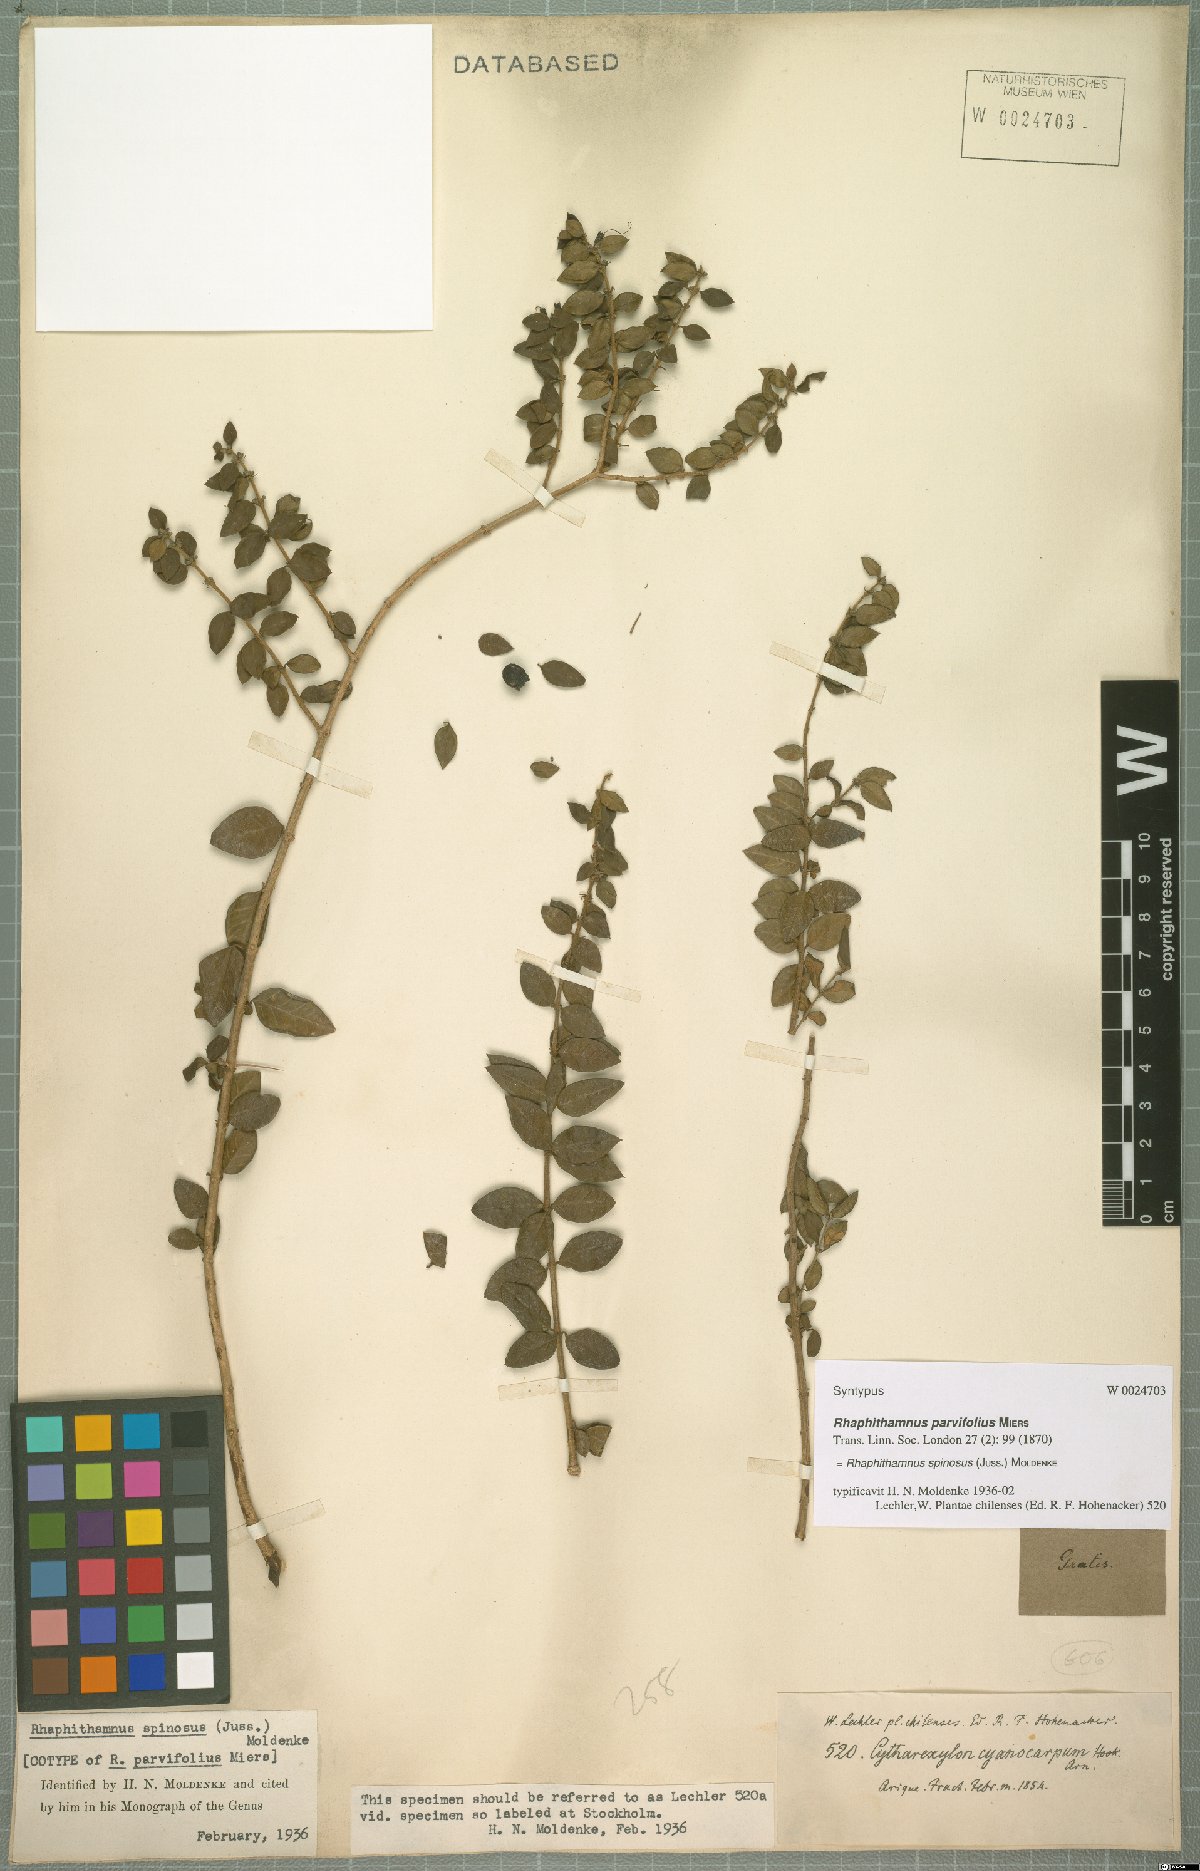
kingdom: Plantae
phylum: Tracheophyta
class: Magnoliopsida
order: Lamiales
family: Verbenaceae
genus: Rhaphithamnus
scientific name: Rhaphithamnus spinosus
